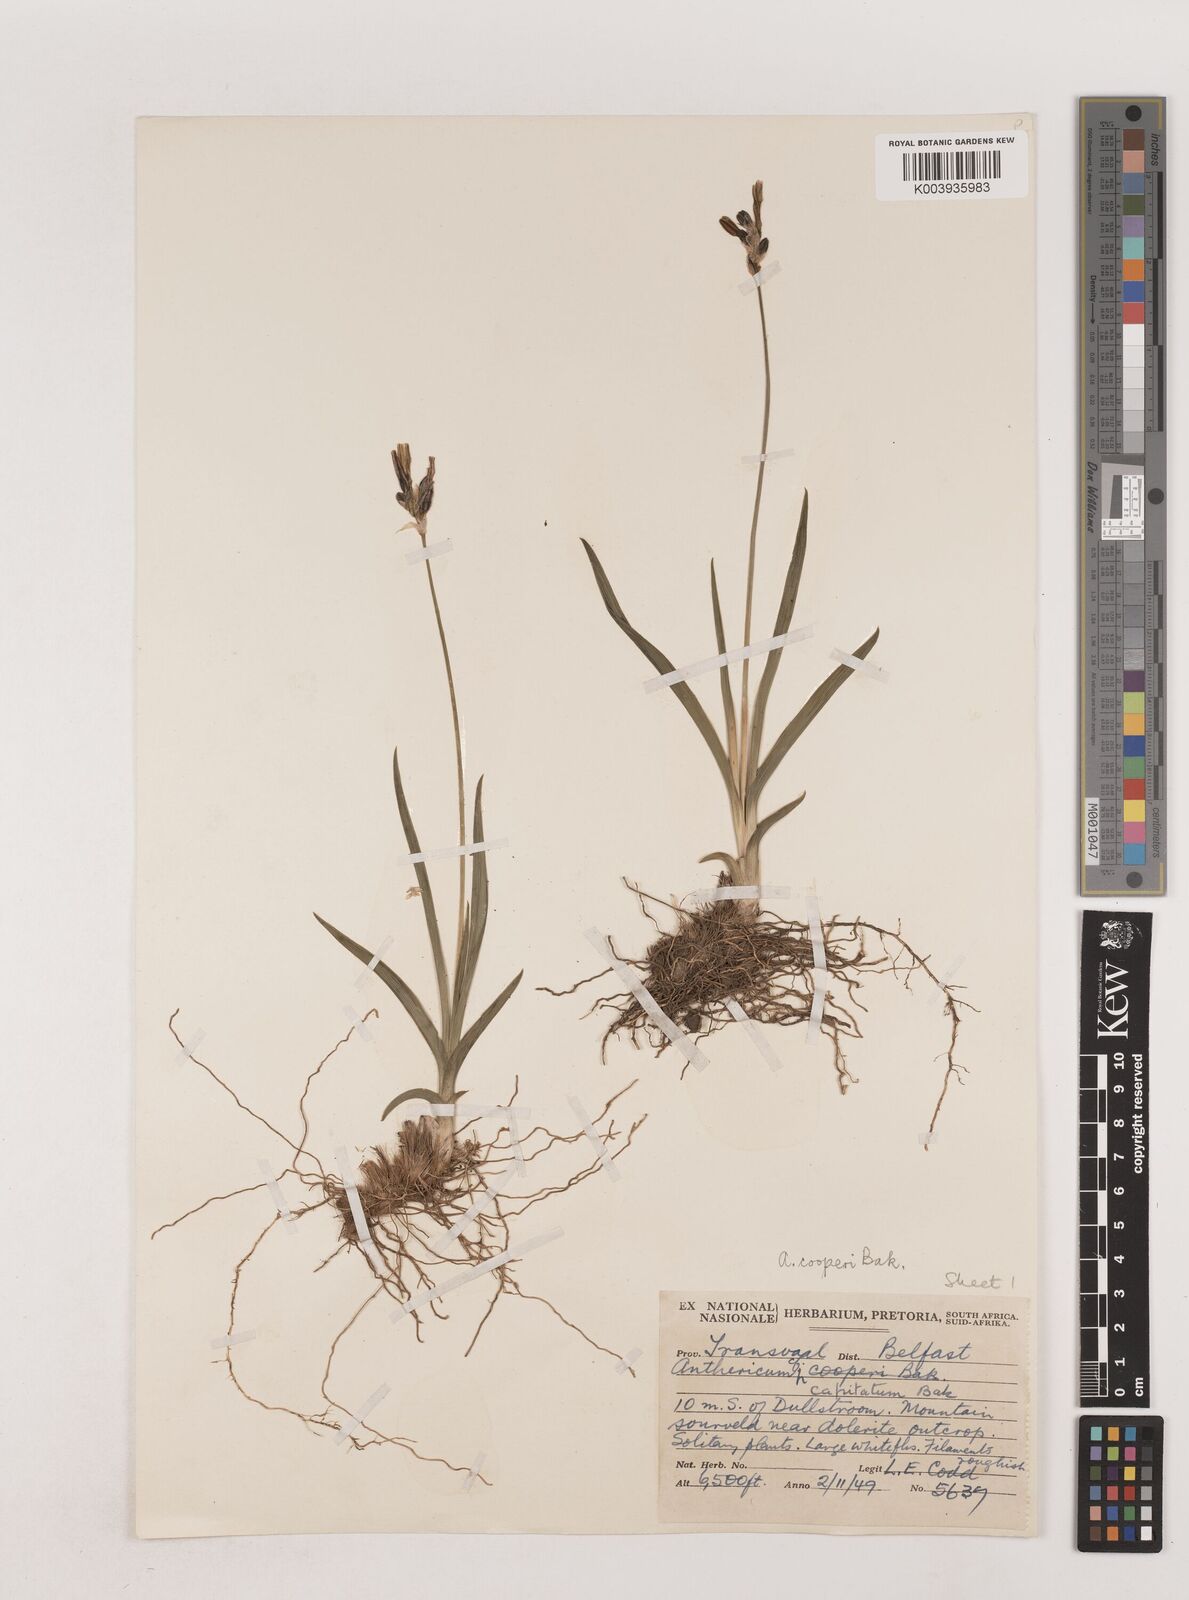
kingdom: Plantae
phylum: Tracheophyta
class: Liliopsida
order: Asparagales
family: Asparagaceae
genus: Chlorophytum
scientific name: Chlorophytum cooperi
